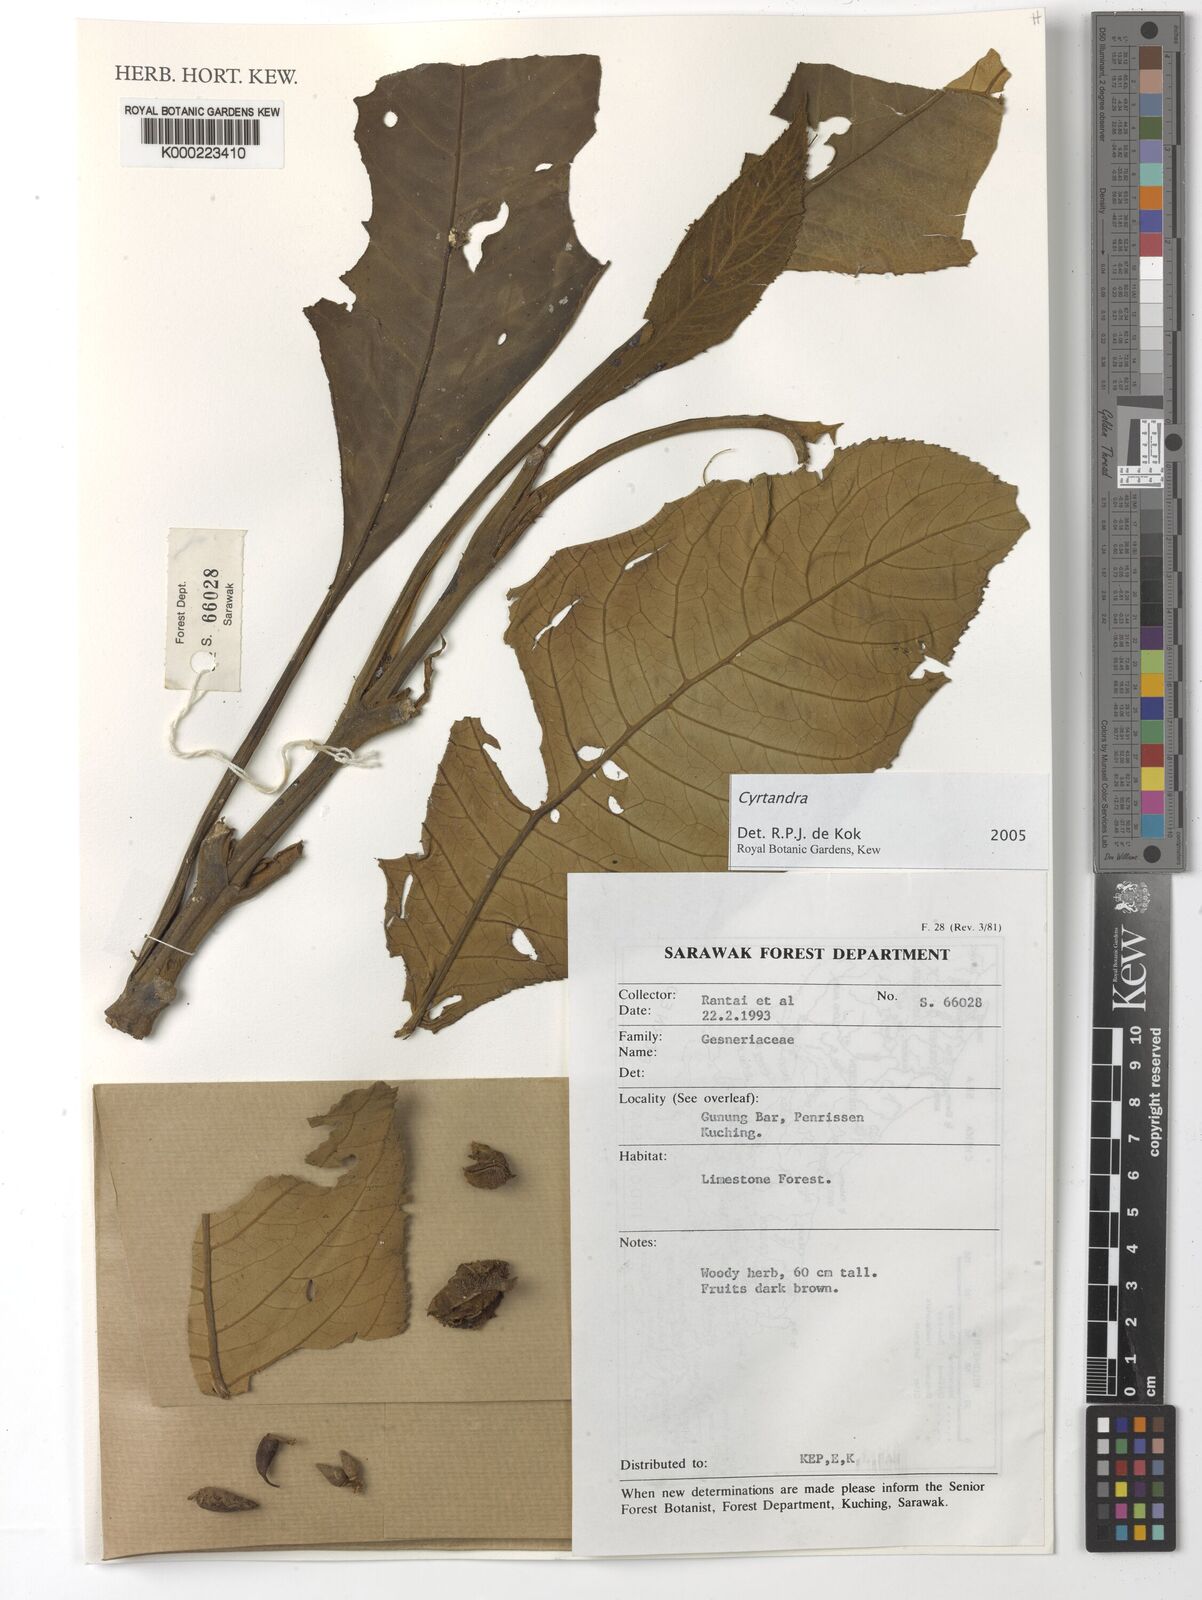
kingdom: Plantae
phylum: Tracheophyta
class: Magnoliopsida
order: Lamiales
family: Gesneriaceae
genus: Cyrtandra
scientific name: Cyrtandra
